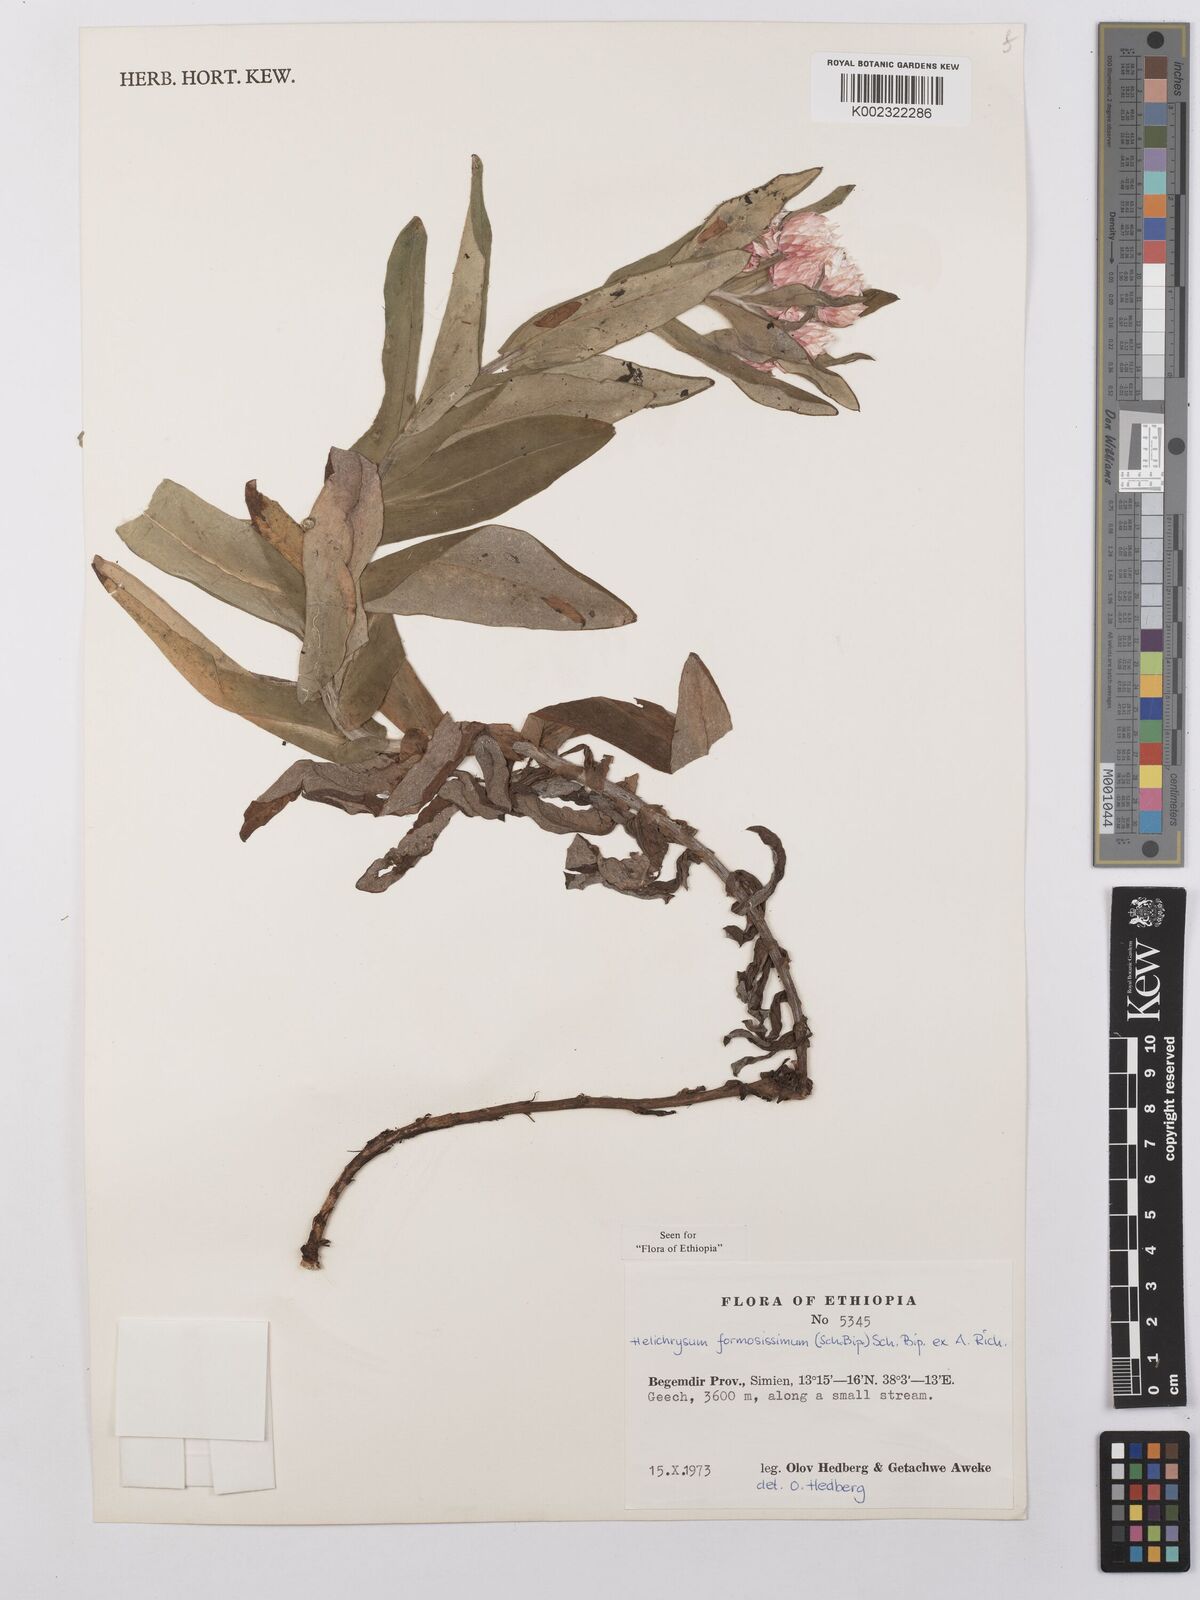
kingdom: Plantae
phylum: Tracheophyta
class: Magnoliopsida
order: Asterales
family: Asteraceae
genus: Helichrysum
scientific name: Helichrysum formosissimum
